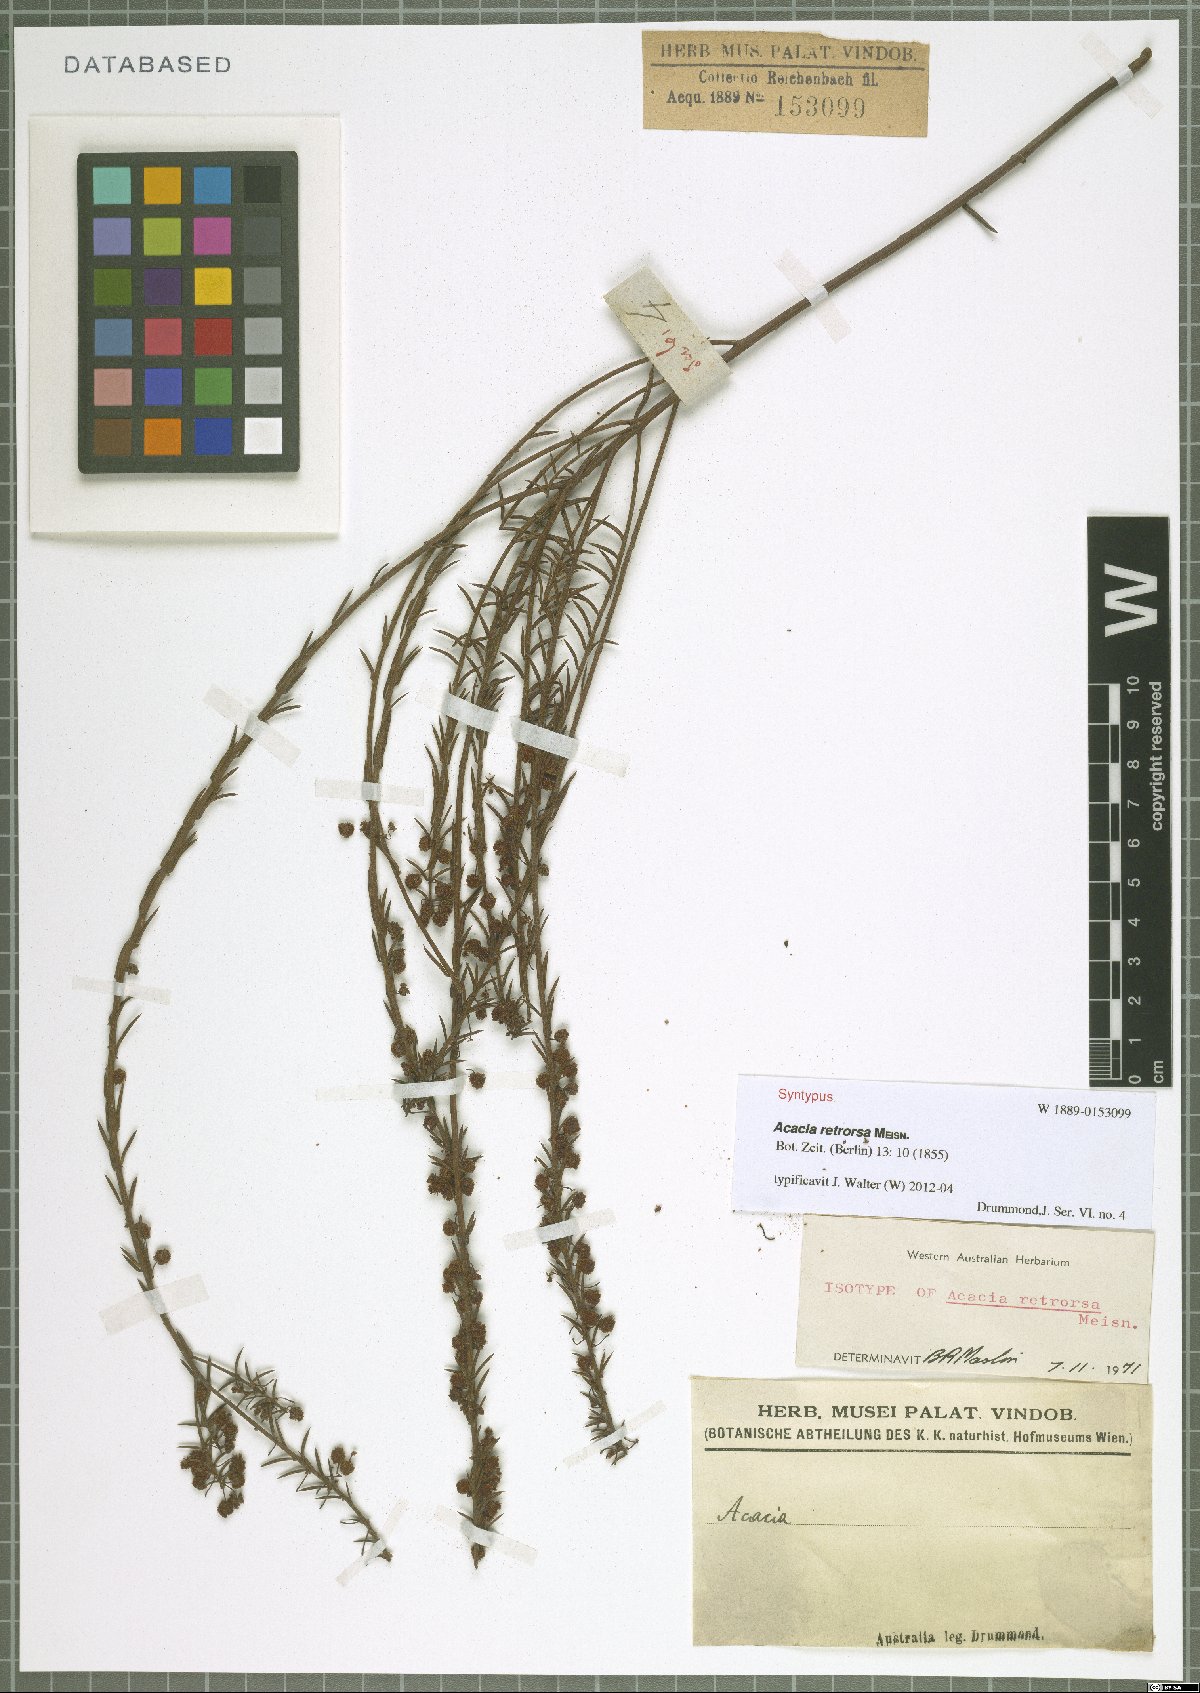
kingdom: Plantae
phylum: Tracheophyta
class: Magnoliopsida
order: Fabales
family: Fabaceae
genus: Acacia
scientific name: Acacia retrorsa
